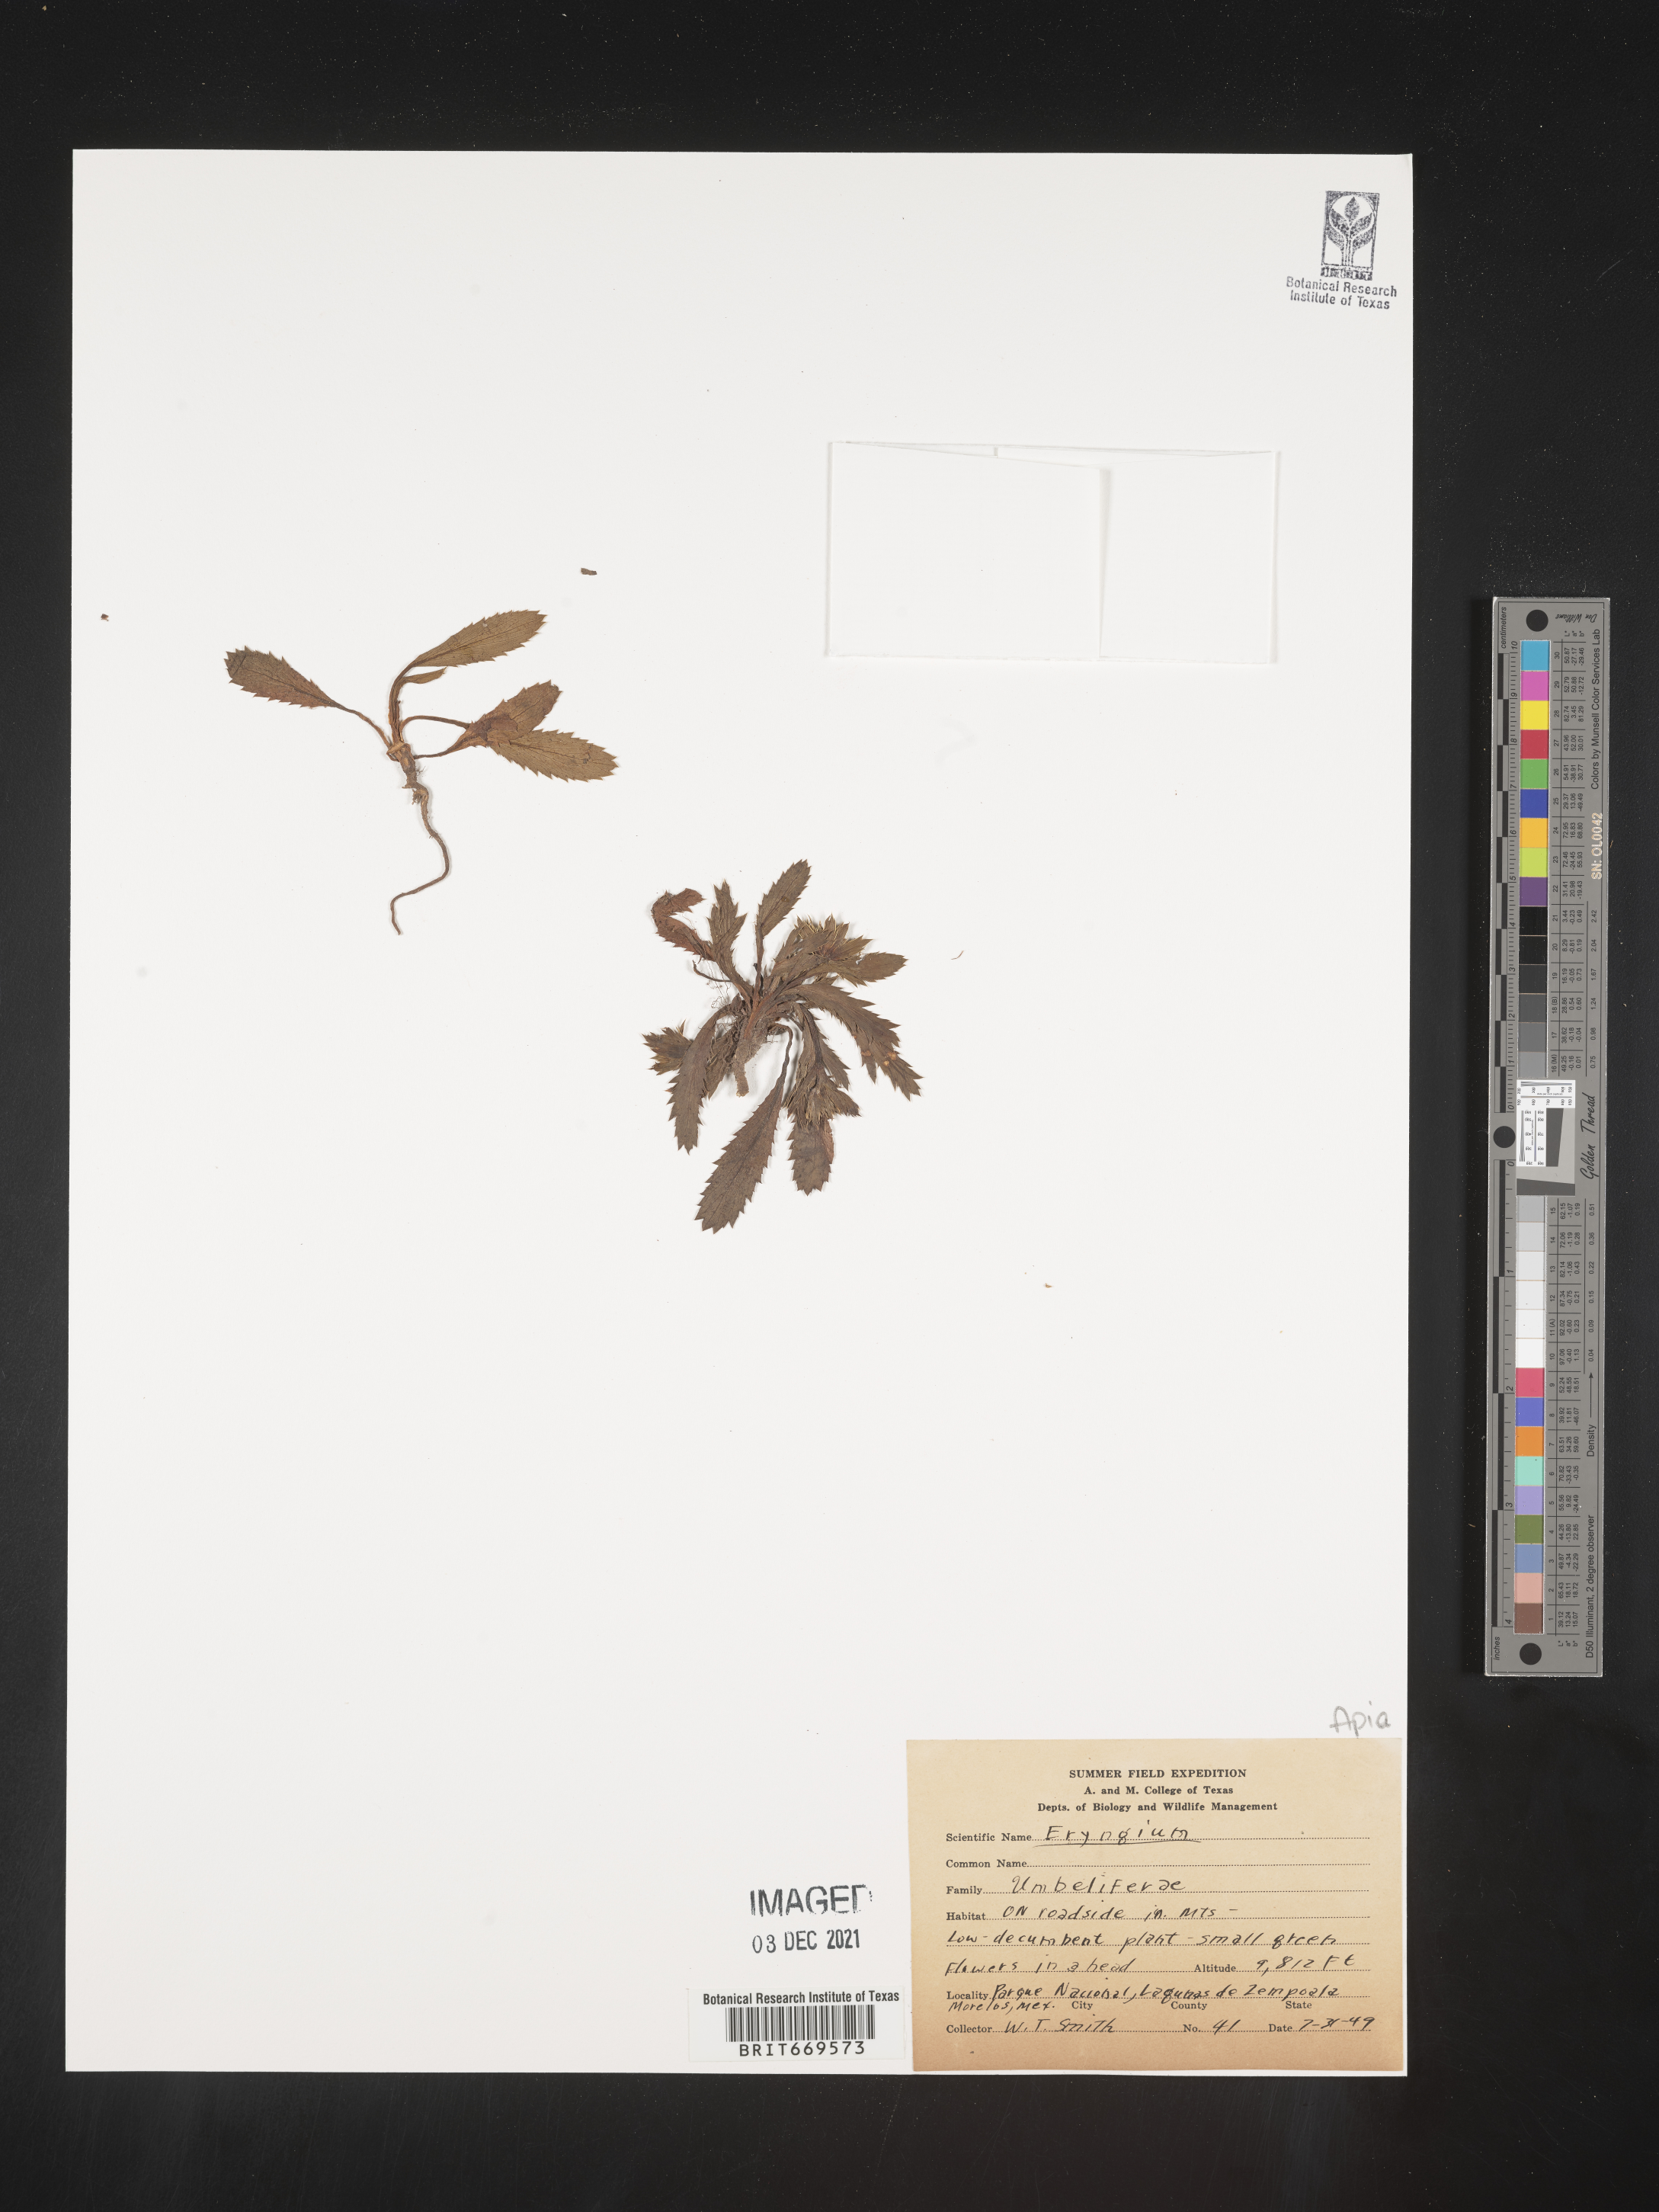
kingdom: Plantae
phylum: Tracheophyta
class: Magnoliopsida
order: Apiales
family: Apiaceae
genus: Eryngium
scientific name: Eryngium
